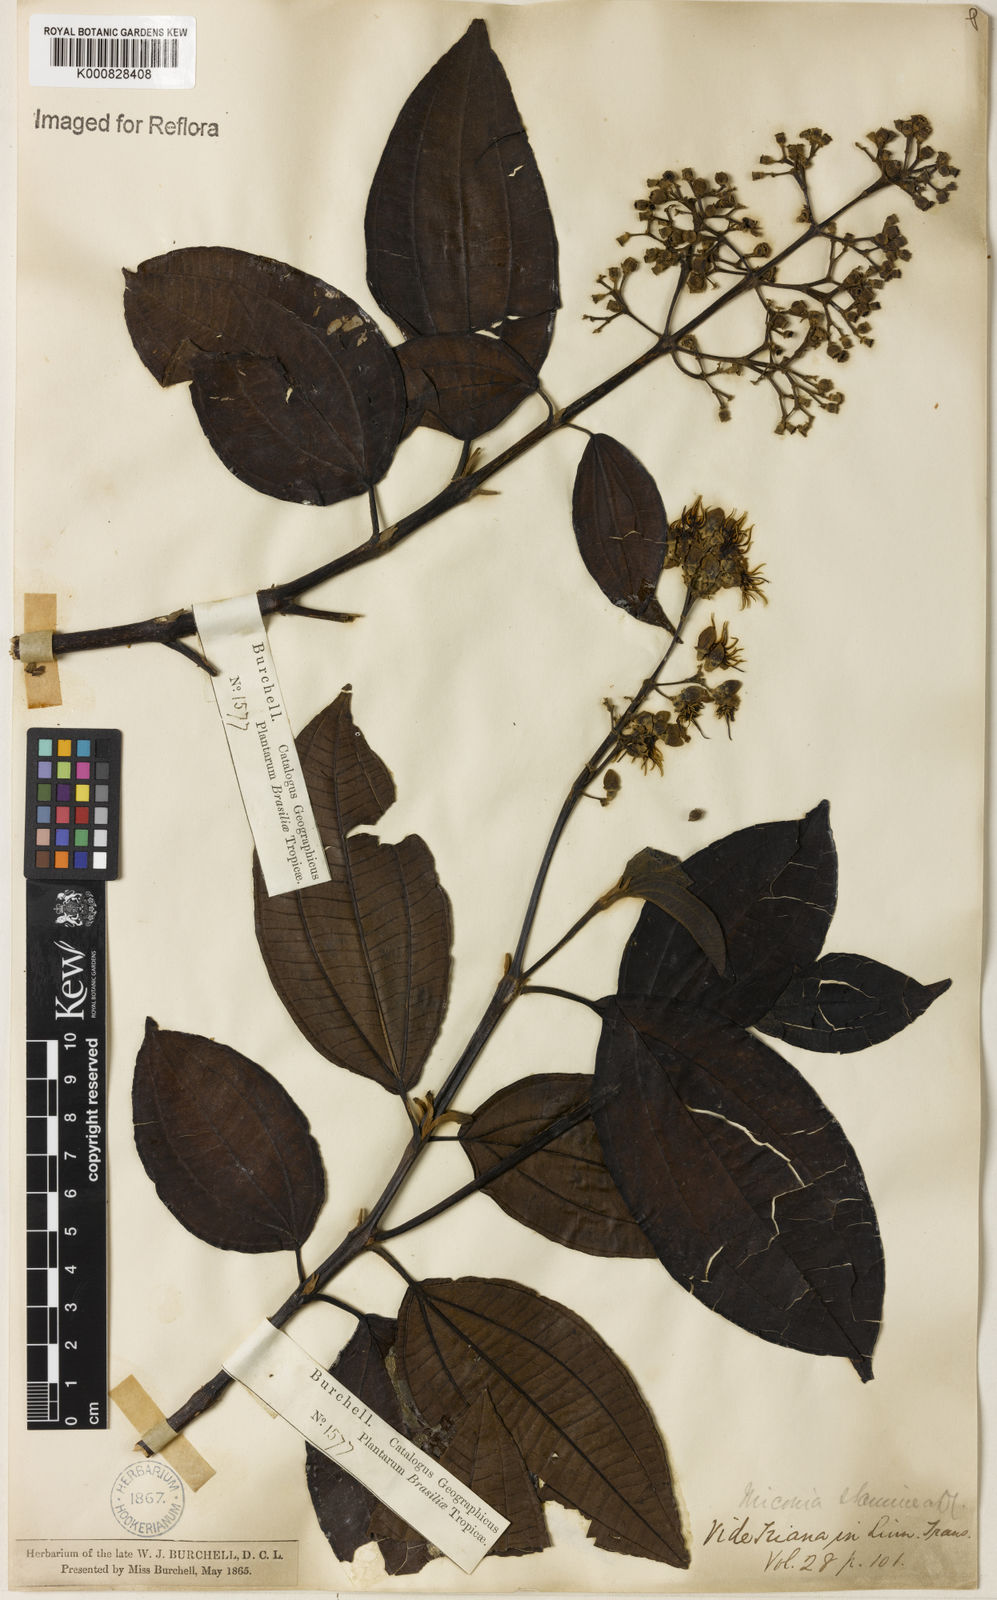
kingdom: Plantae
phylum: Tracheophyta
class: Magnoliopsida
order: Myrtales
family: Melastomataceae
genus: Miconia
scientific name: Miconia staminea
